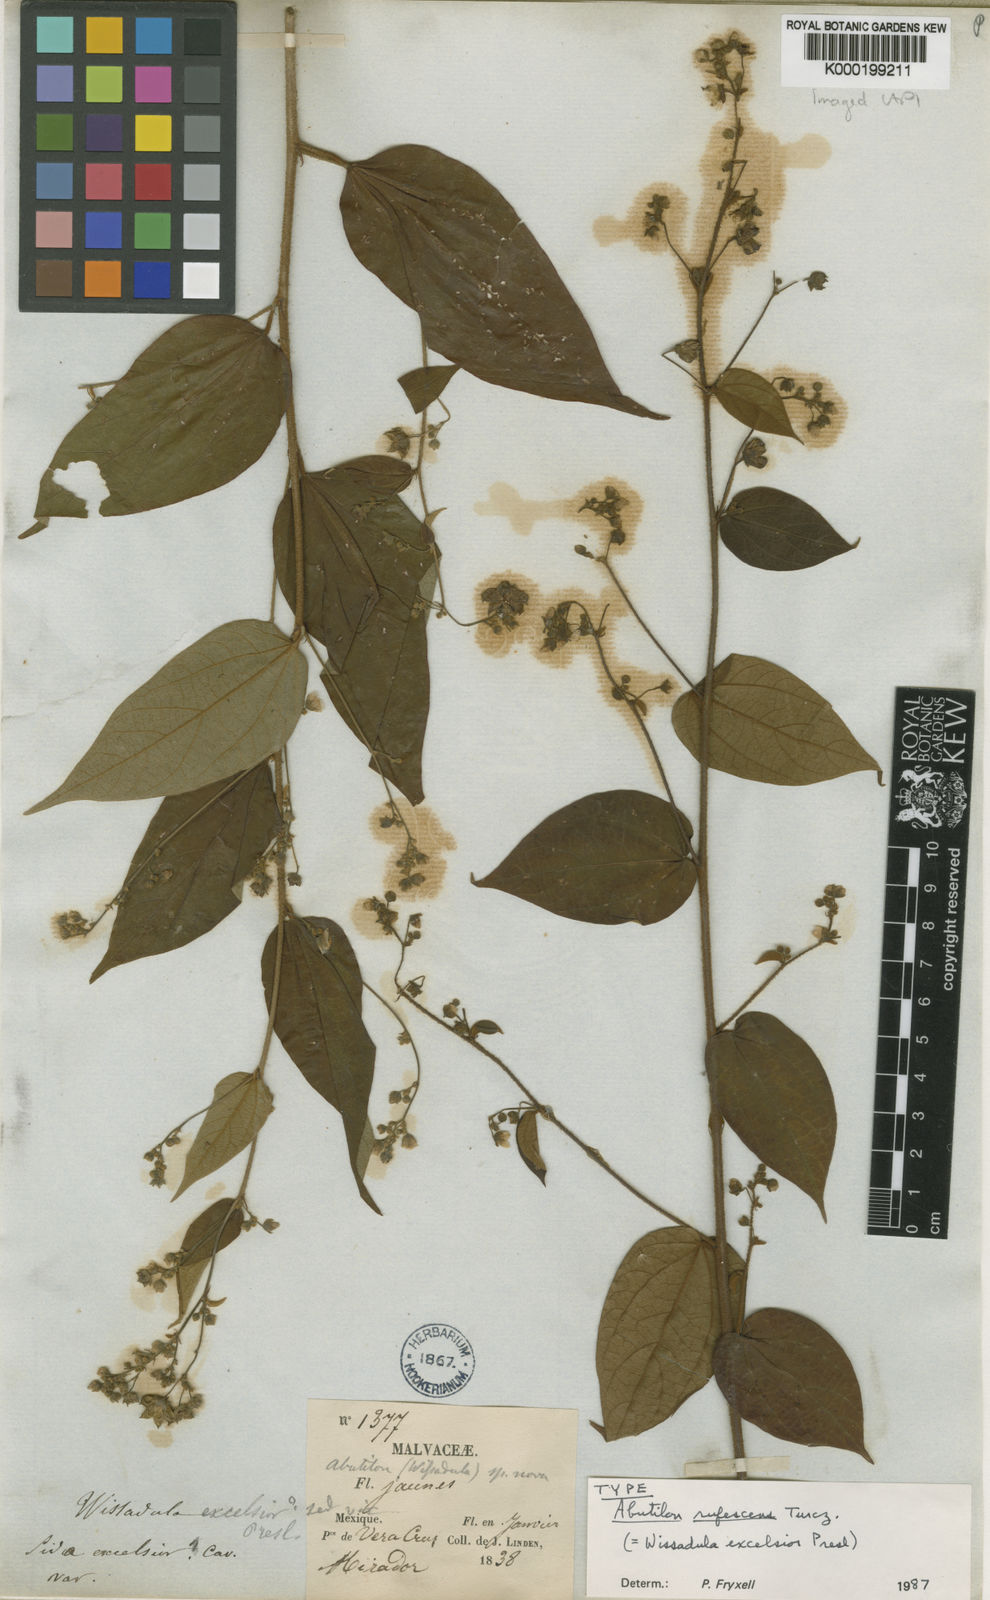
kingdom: Plantae
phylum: Tracheophyta
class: Magnoliopsida
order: Malvales
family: Malvaceae
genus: Wissadula
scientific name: Wissadula excelsior
